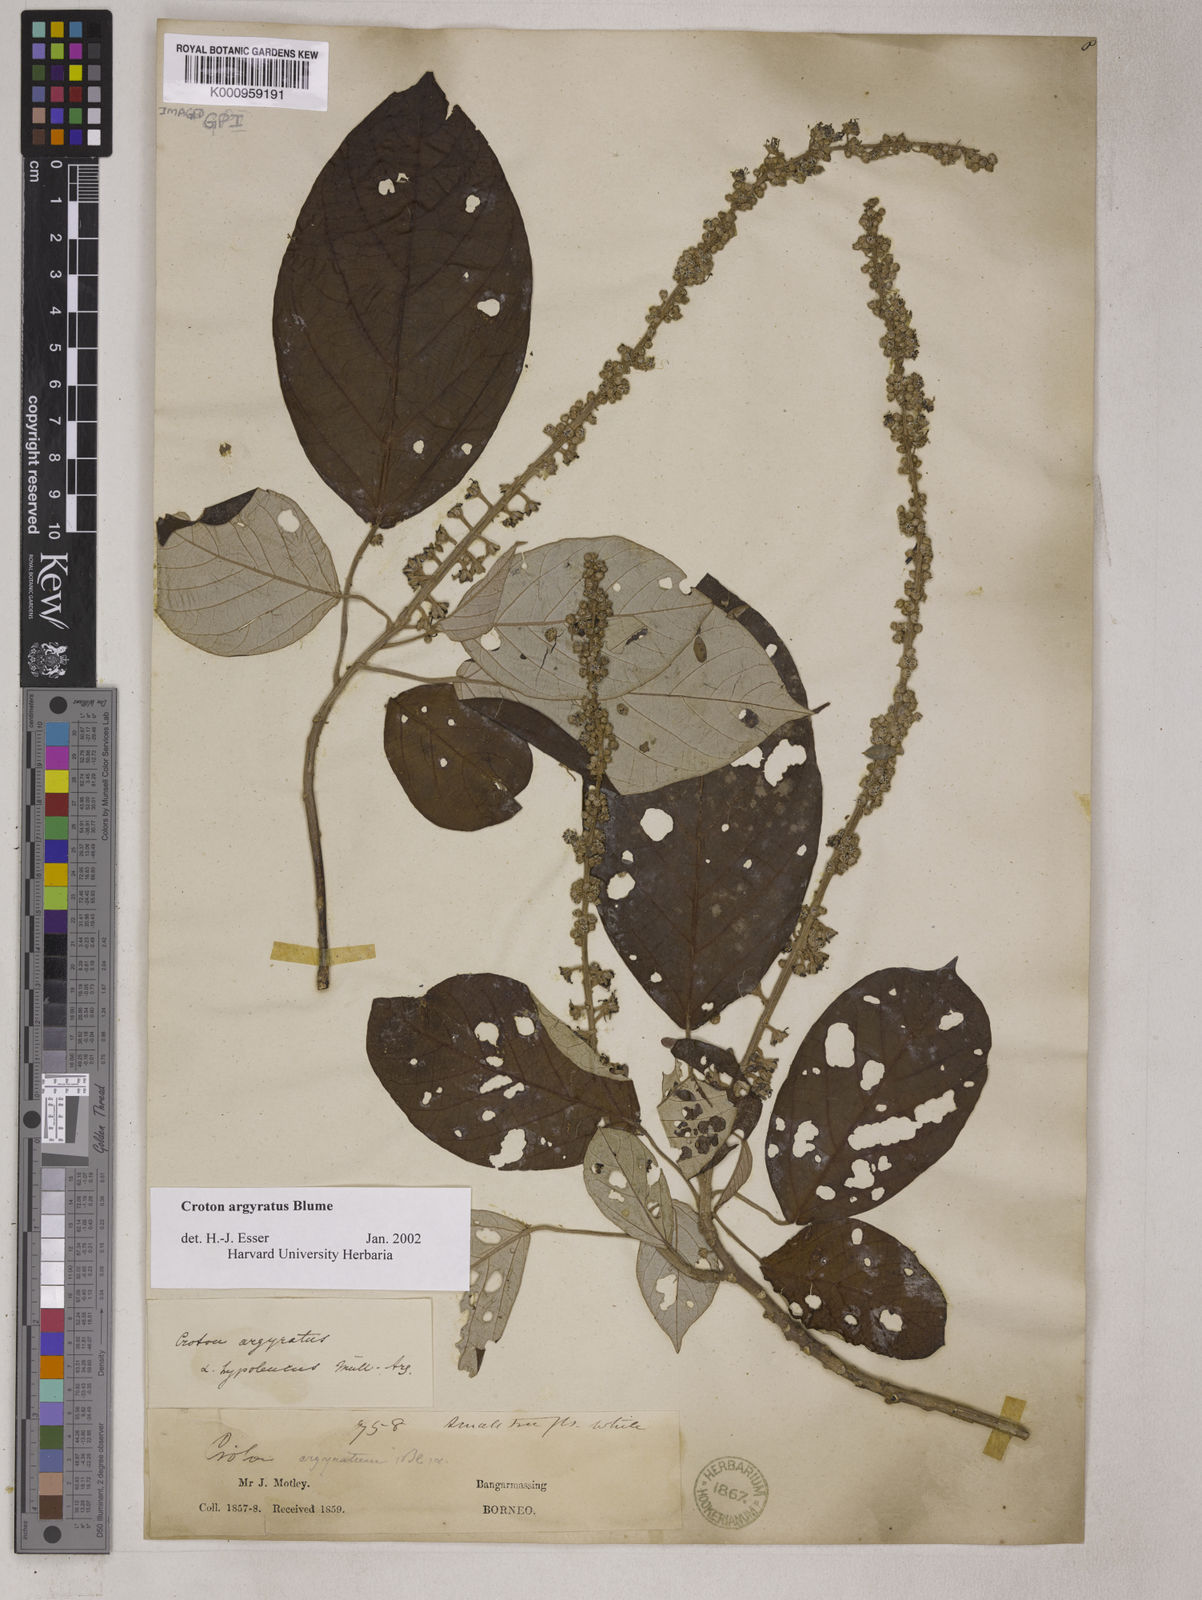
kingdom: Plantae
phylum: Tracheophyta
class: Magnoliopsida
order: Malpighiales
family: Euphorbiaceae
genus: Croton
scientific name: Croton argyratus
